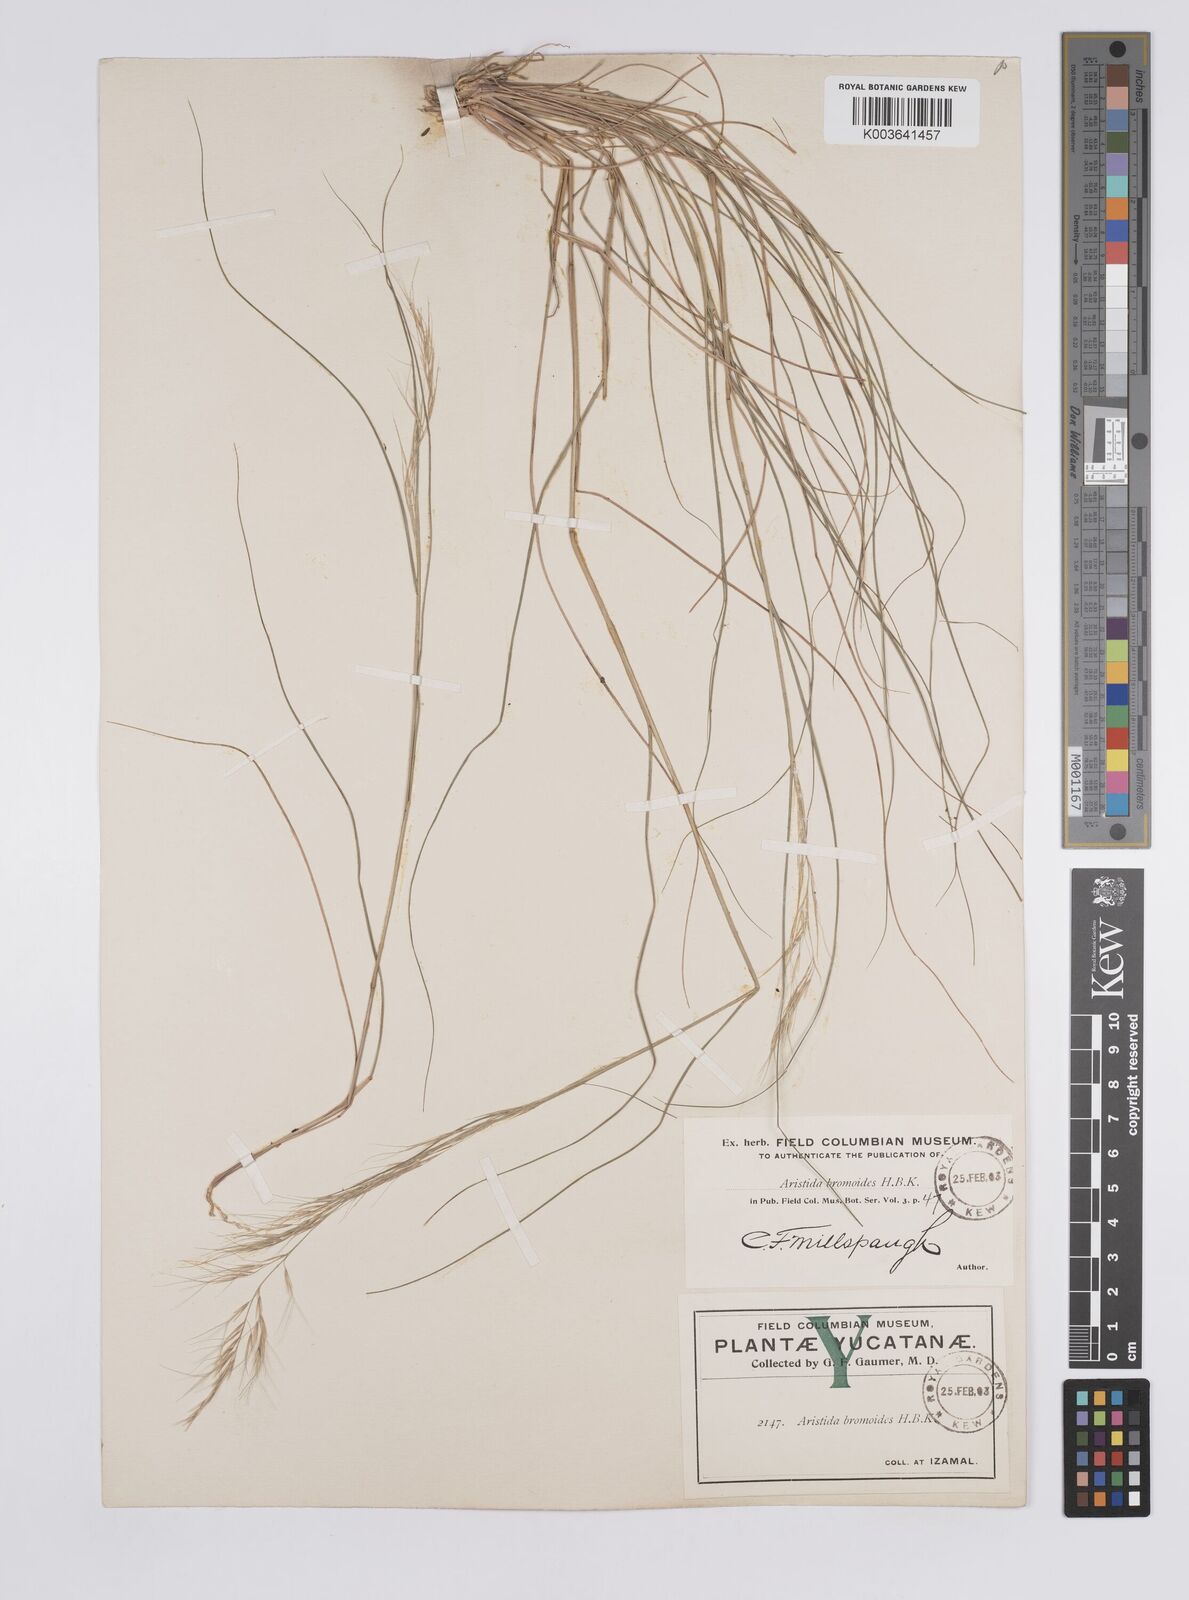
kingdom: Plantae
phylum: Tracheophyta
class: Liliopsida
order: Poales
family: Poaceae
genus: Aristida
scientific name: Aristida adscensionis
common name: Sixweeks threeawn
